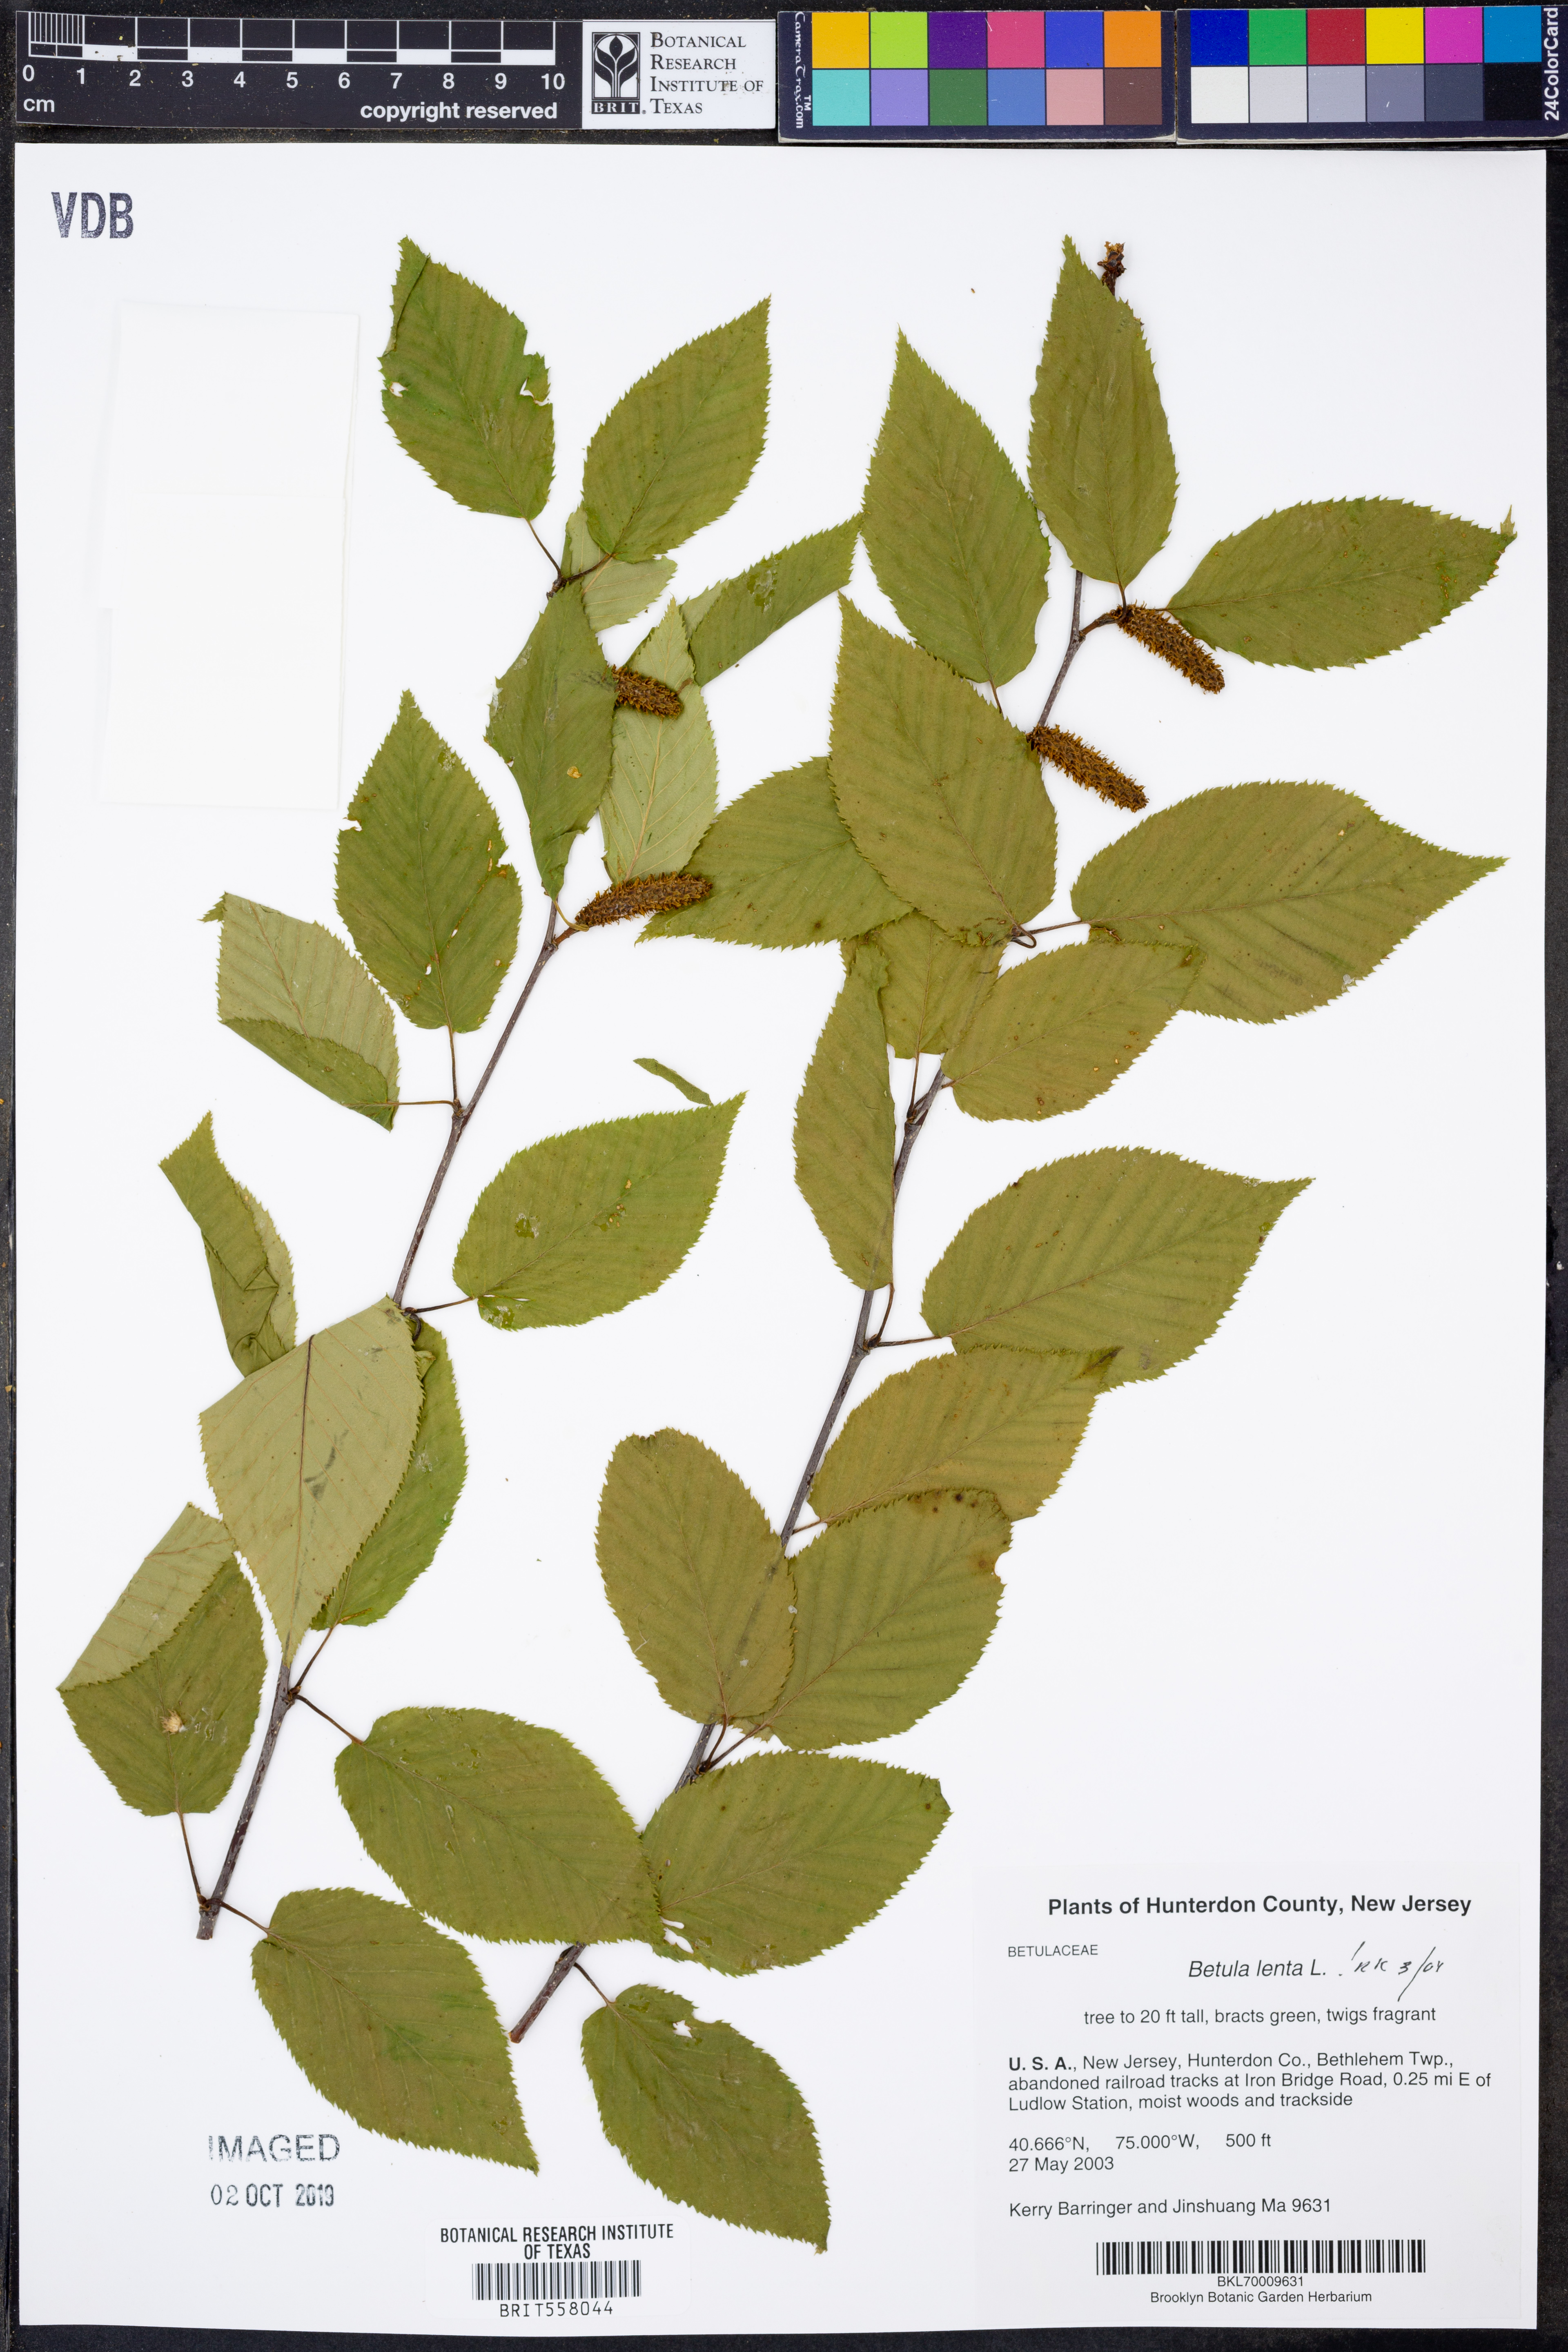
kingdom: Plantae
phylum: Tracheophyta
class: Magnoliopsida
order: Fagales
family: Betulaceae
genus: Betula
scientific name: Betula lenta
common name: Black birch
